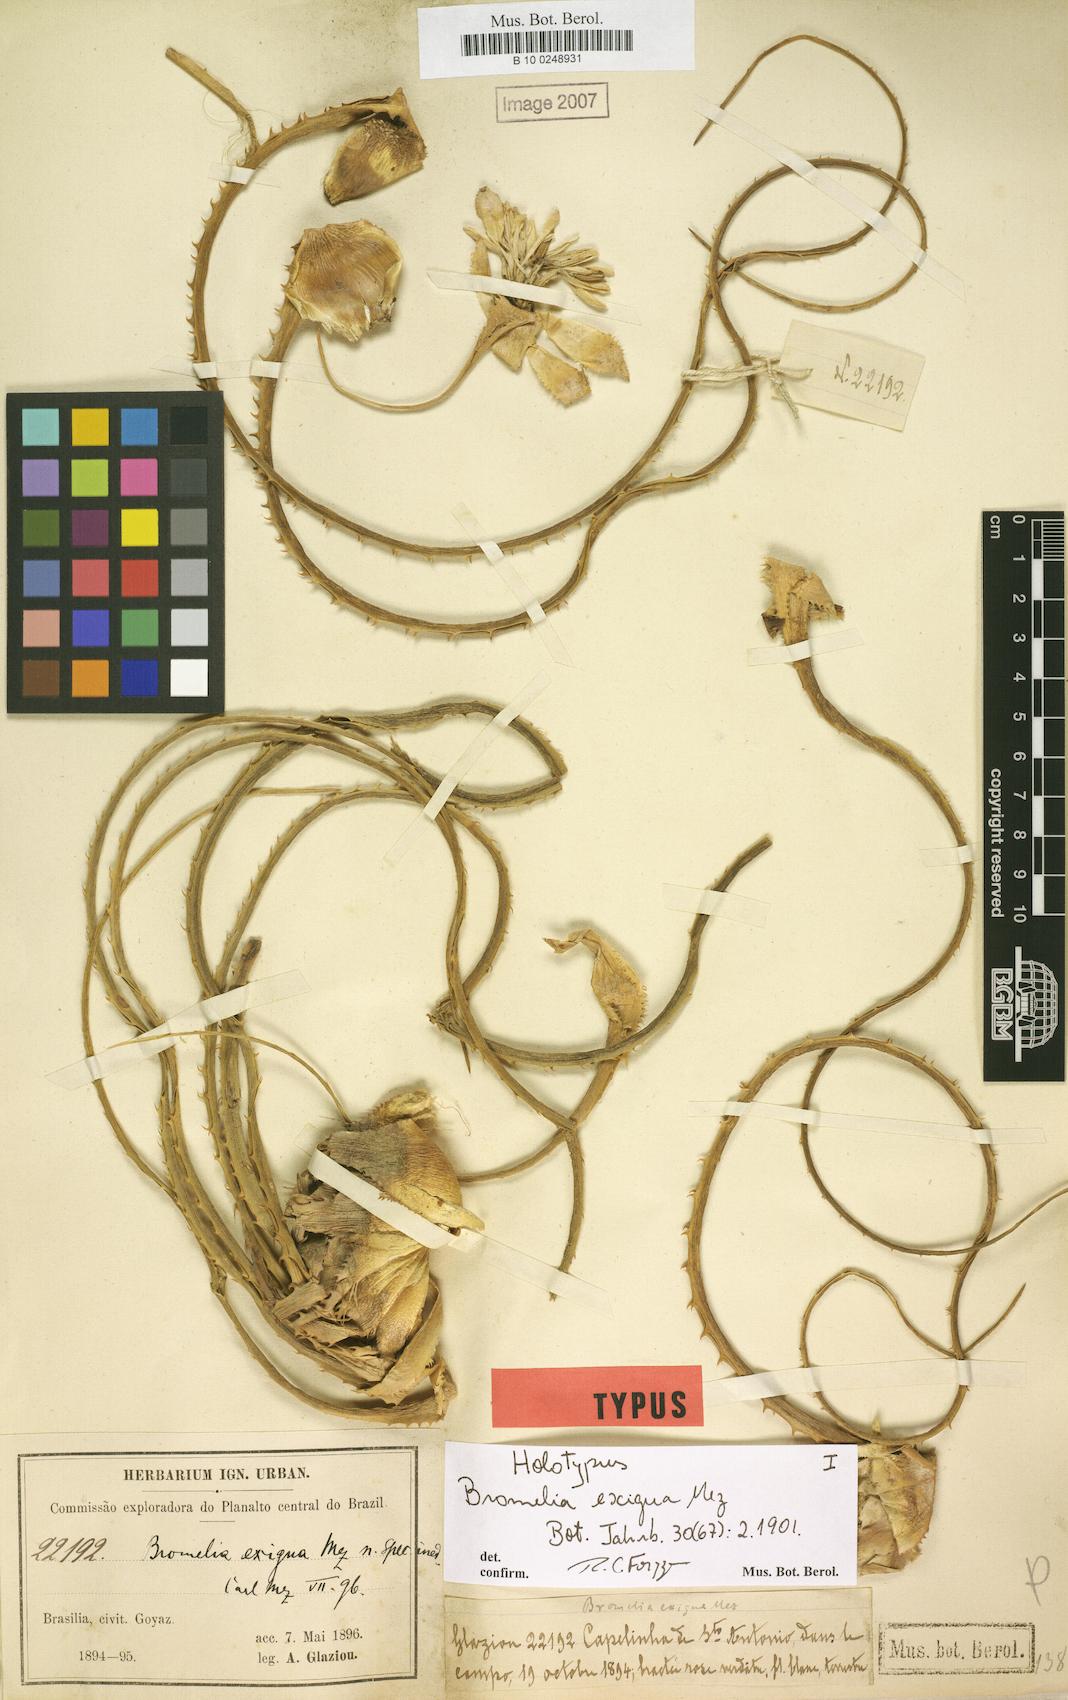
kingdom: Plantae
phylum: Tracheophyta
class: Liliopsida
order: Poales
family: Bromeliaceae
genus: Bromelia
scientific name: Bromelia exigua
